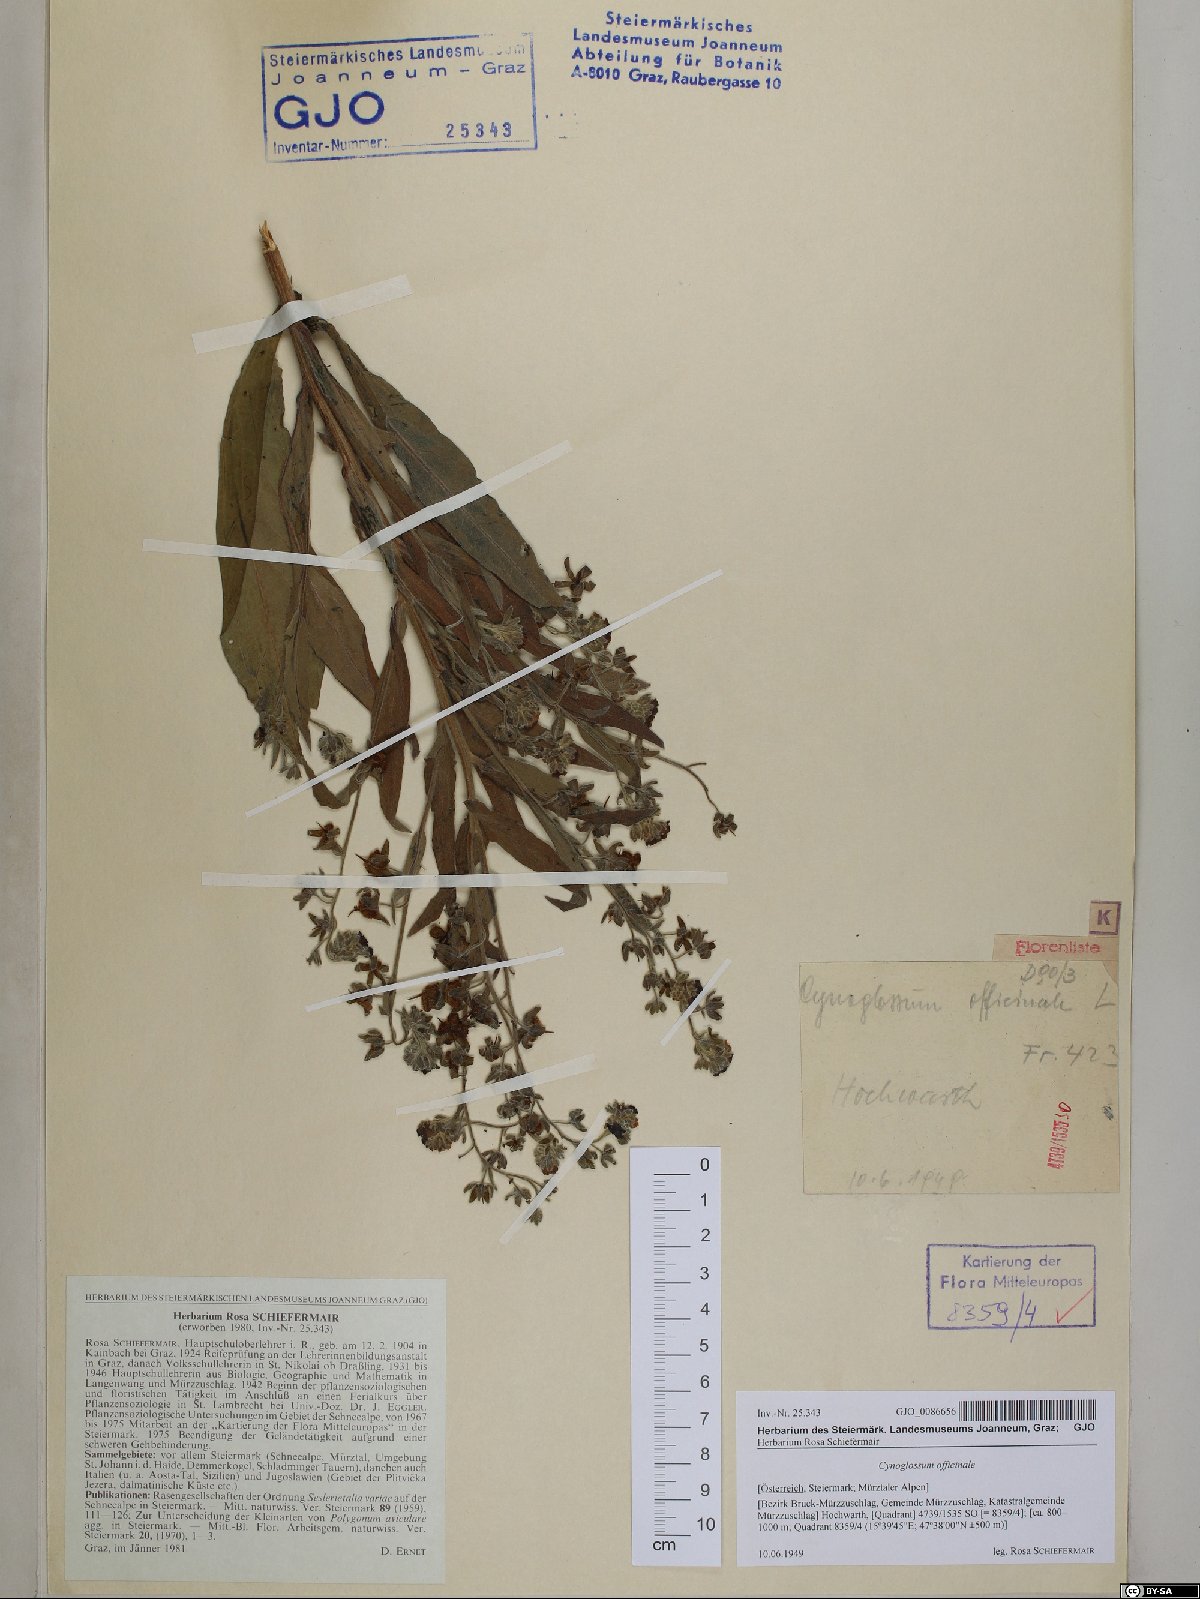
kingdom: Plantae
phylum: Tracheophyta
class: Magnoliopsida
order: Boraginales
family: Boraginaceae
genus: Cynoglossum
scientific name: Cynoglossum officinale
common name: Hound's-tongue
